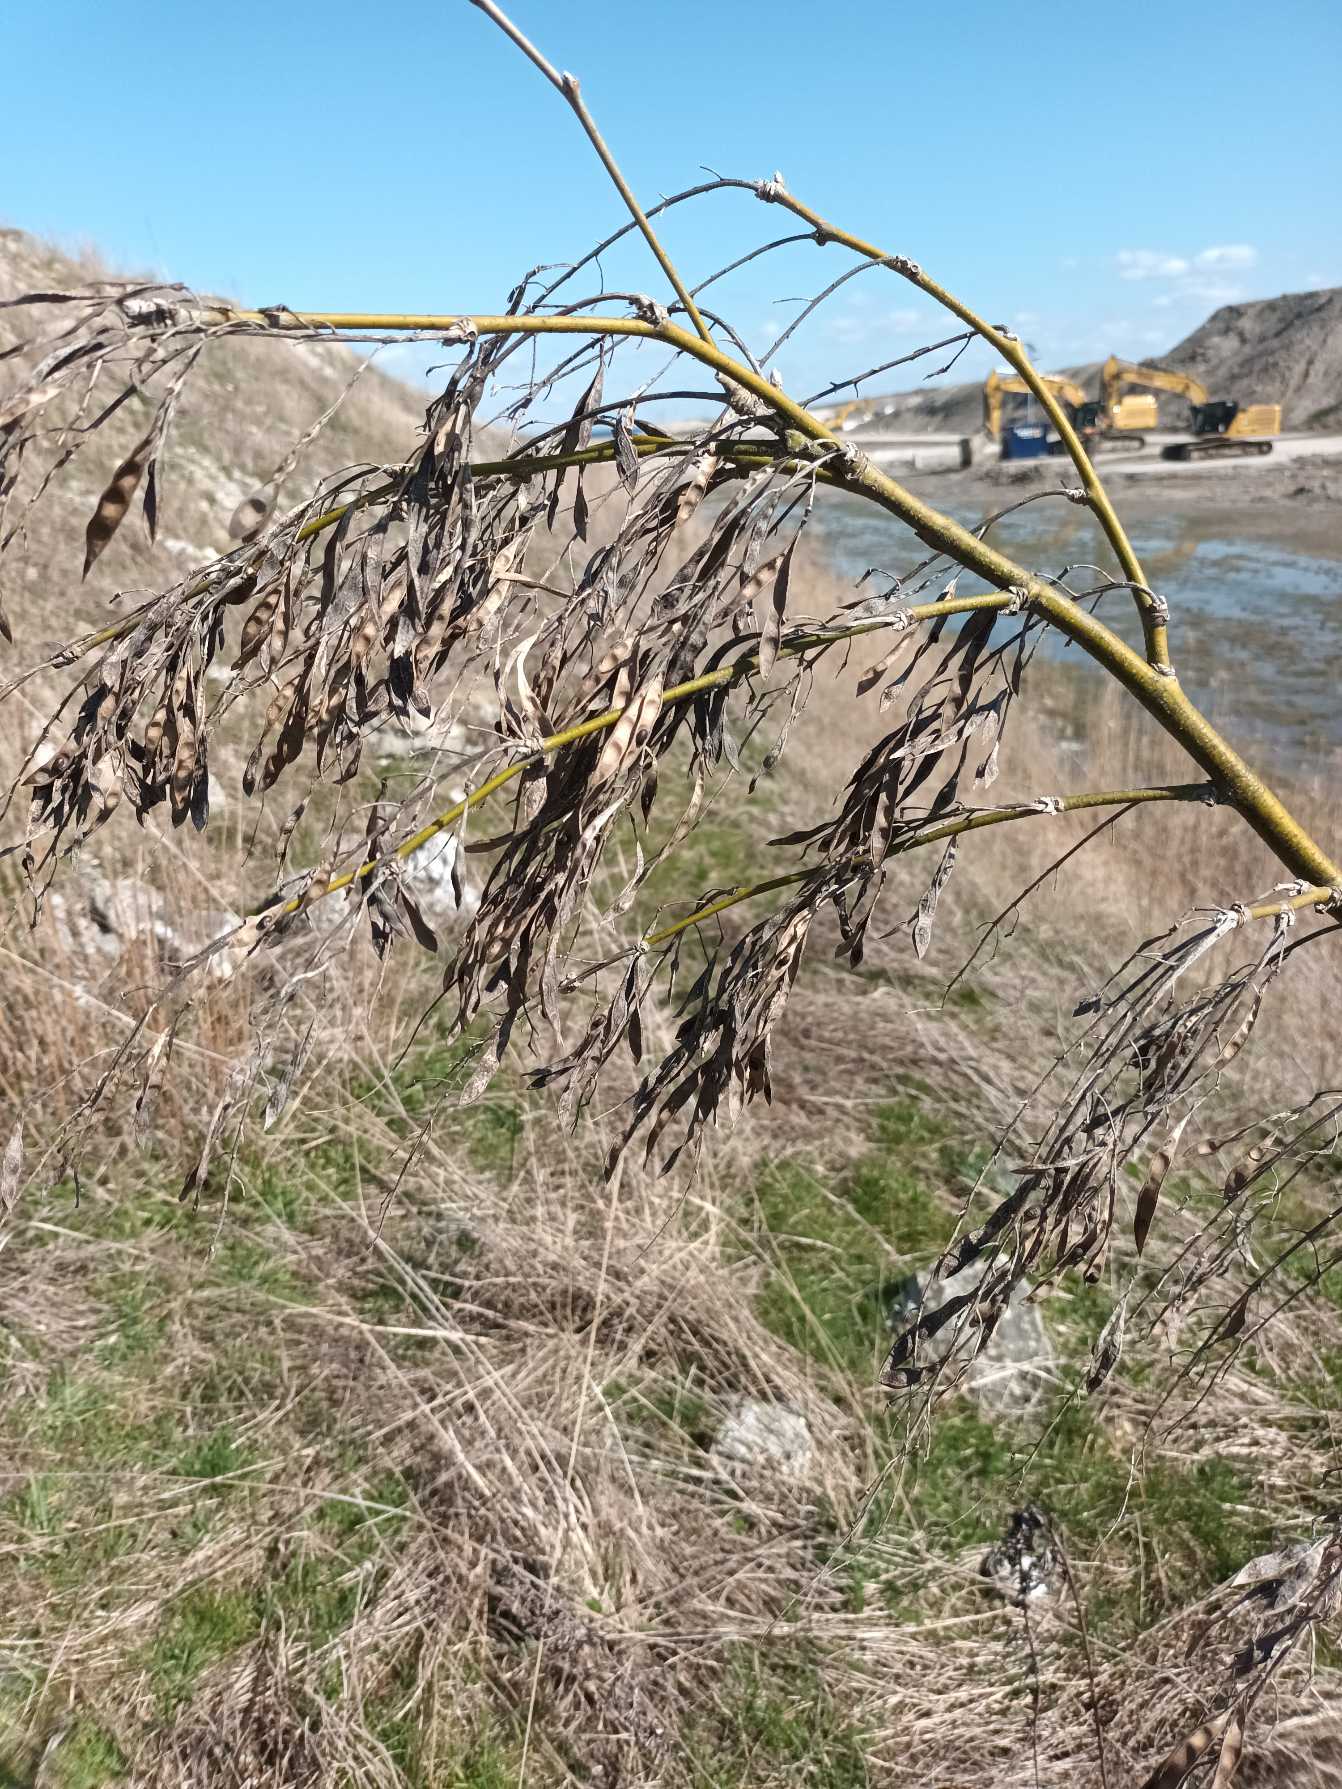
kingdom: Plantae
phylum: Tracheophyta
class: Magnoliopsida
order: Fabales
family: Fabaceae
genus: Laburnum
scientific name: Laburnum anagyroides
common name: Guldregn
